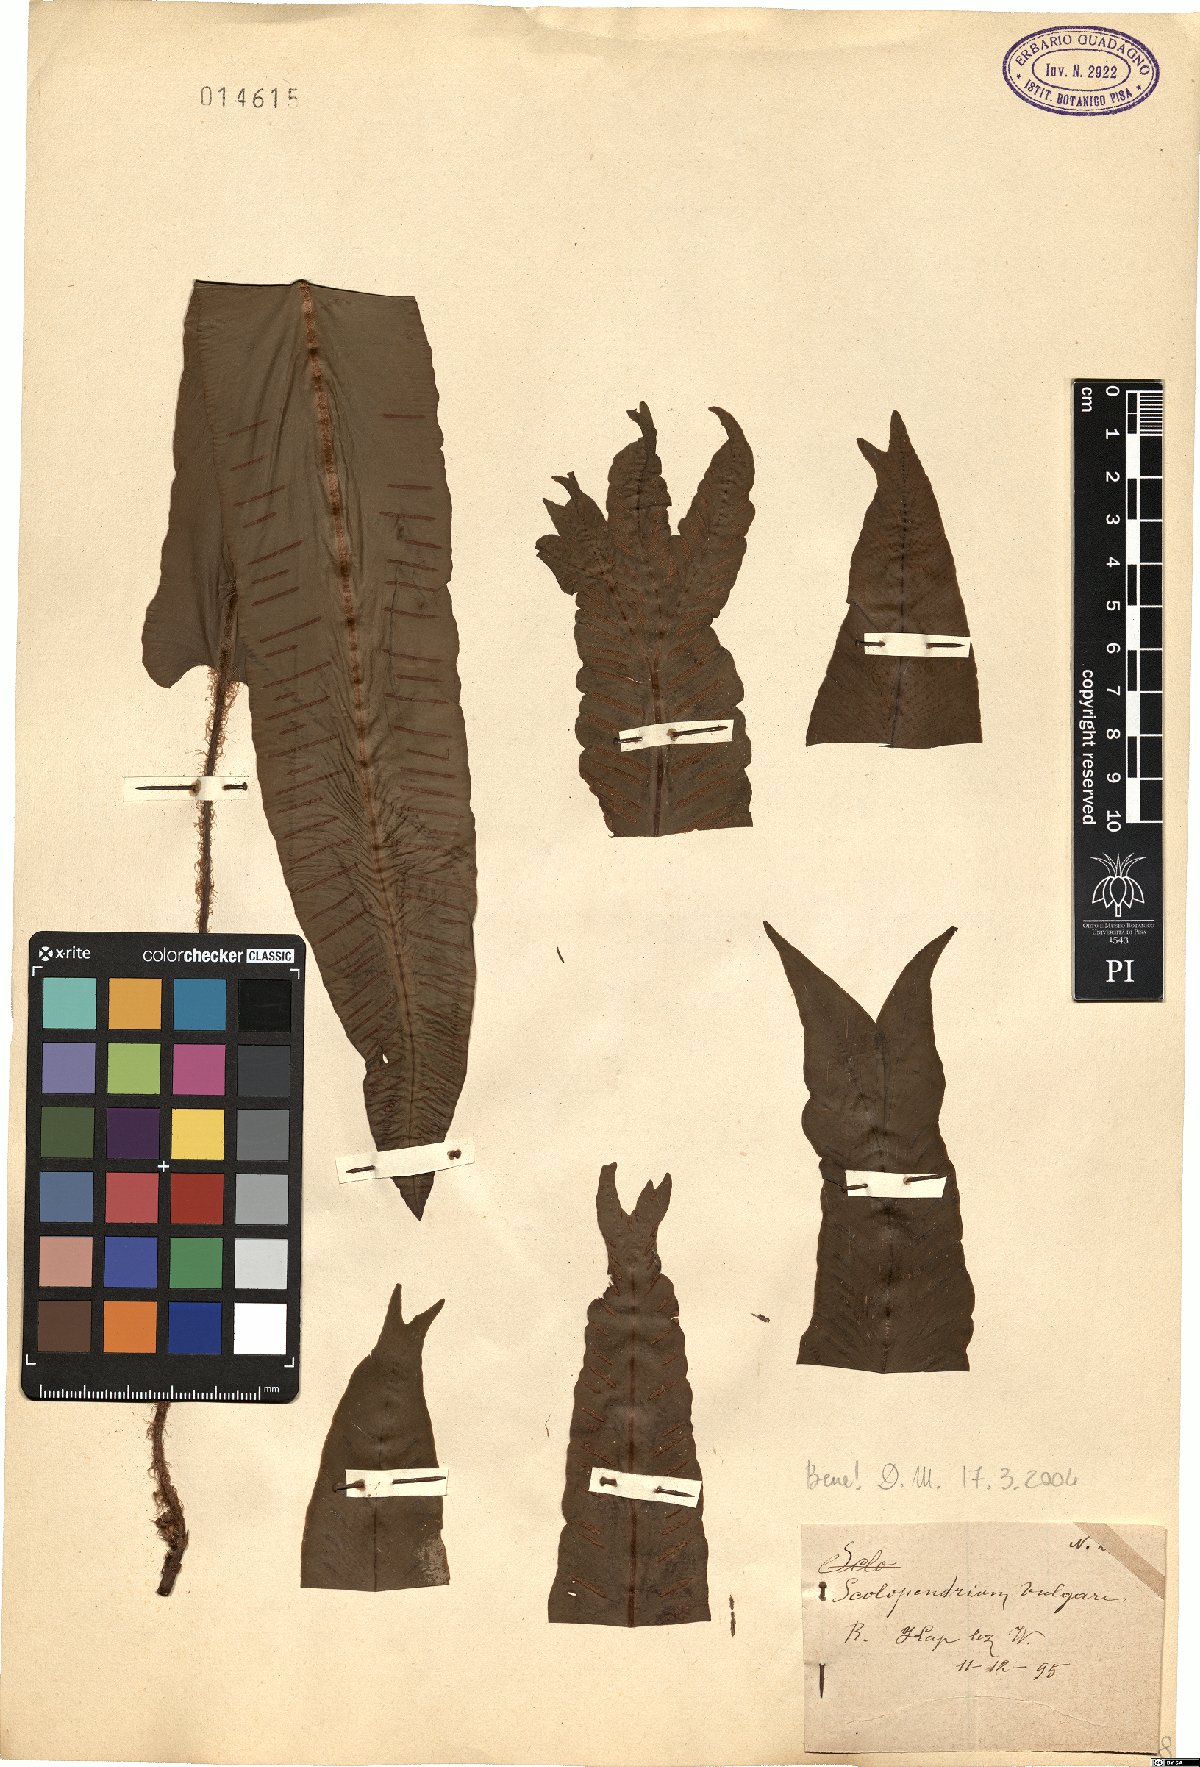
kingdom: Plantae
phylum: Tracheophyta
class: Polypodiopsida
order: Polypodiales
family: Aspleniaceae
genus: Asplenium
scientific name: Asplenium scolopendrium
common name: Hart's-tongue fern
